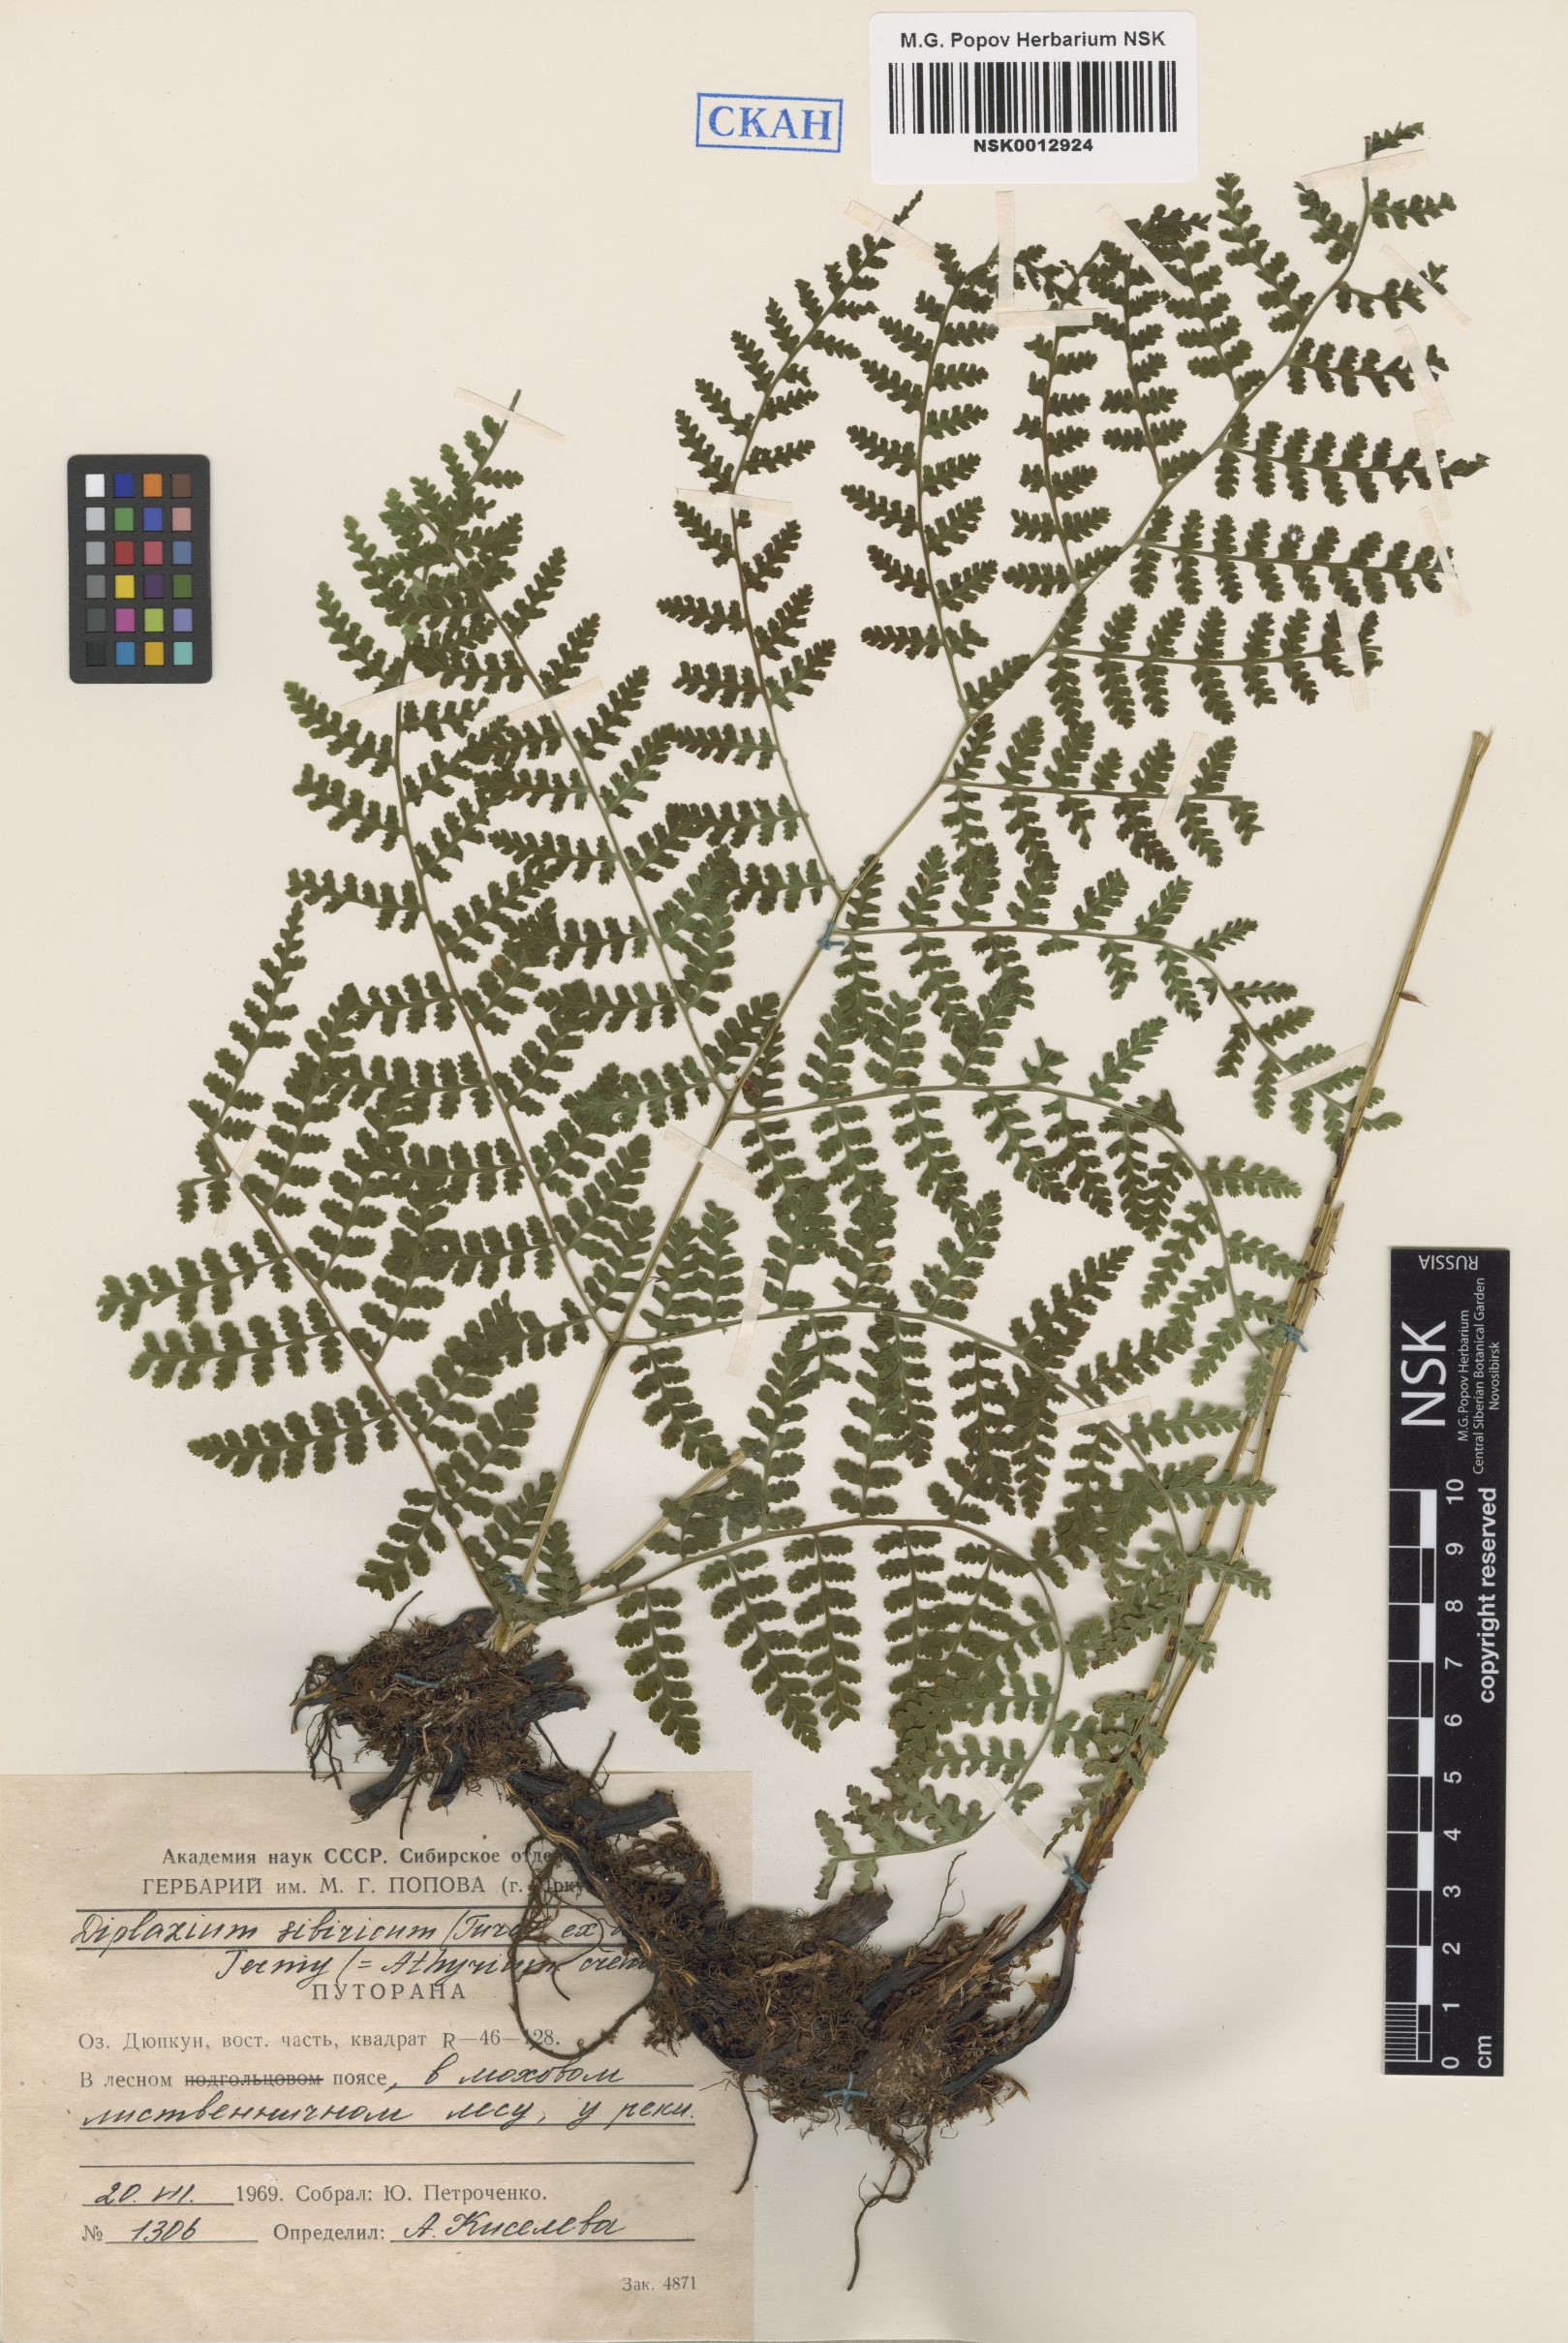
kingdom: Plantae
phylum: Tracheophyta
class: Polypodiopsida
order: Polypodiales
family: Athyriaceae
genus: Diplazium
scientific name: Diplazium sibiricum
